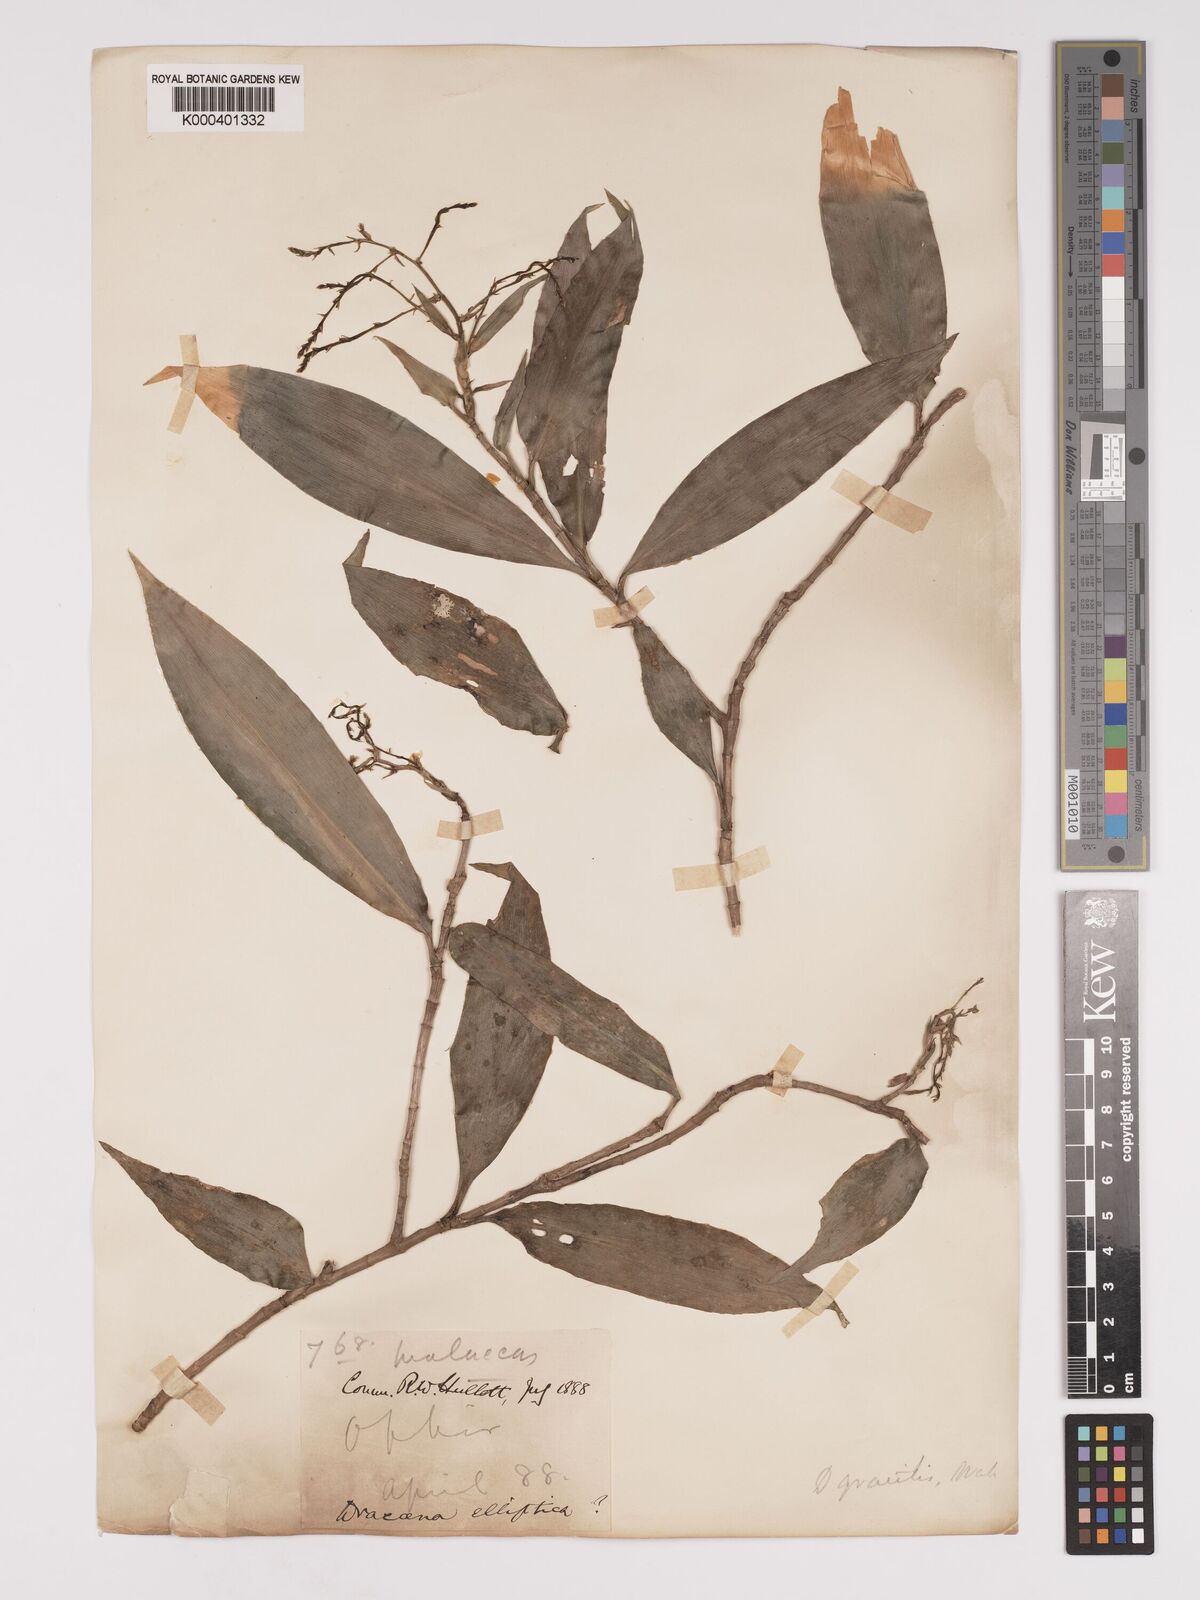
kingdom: Plantae
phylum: Tracheophyta
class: Liliopsida
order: Asparagales
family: Asparagaceae
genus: Dracaena
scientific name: Dracaena elliptica
